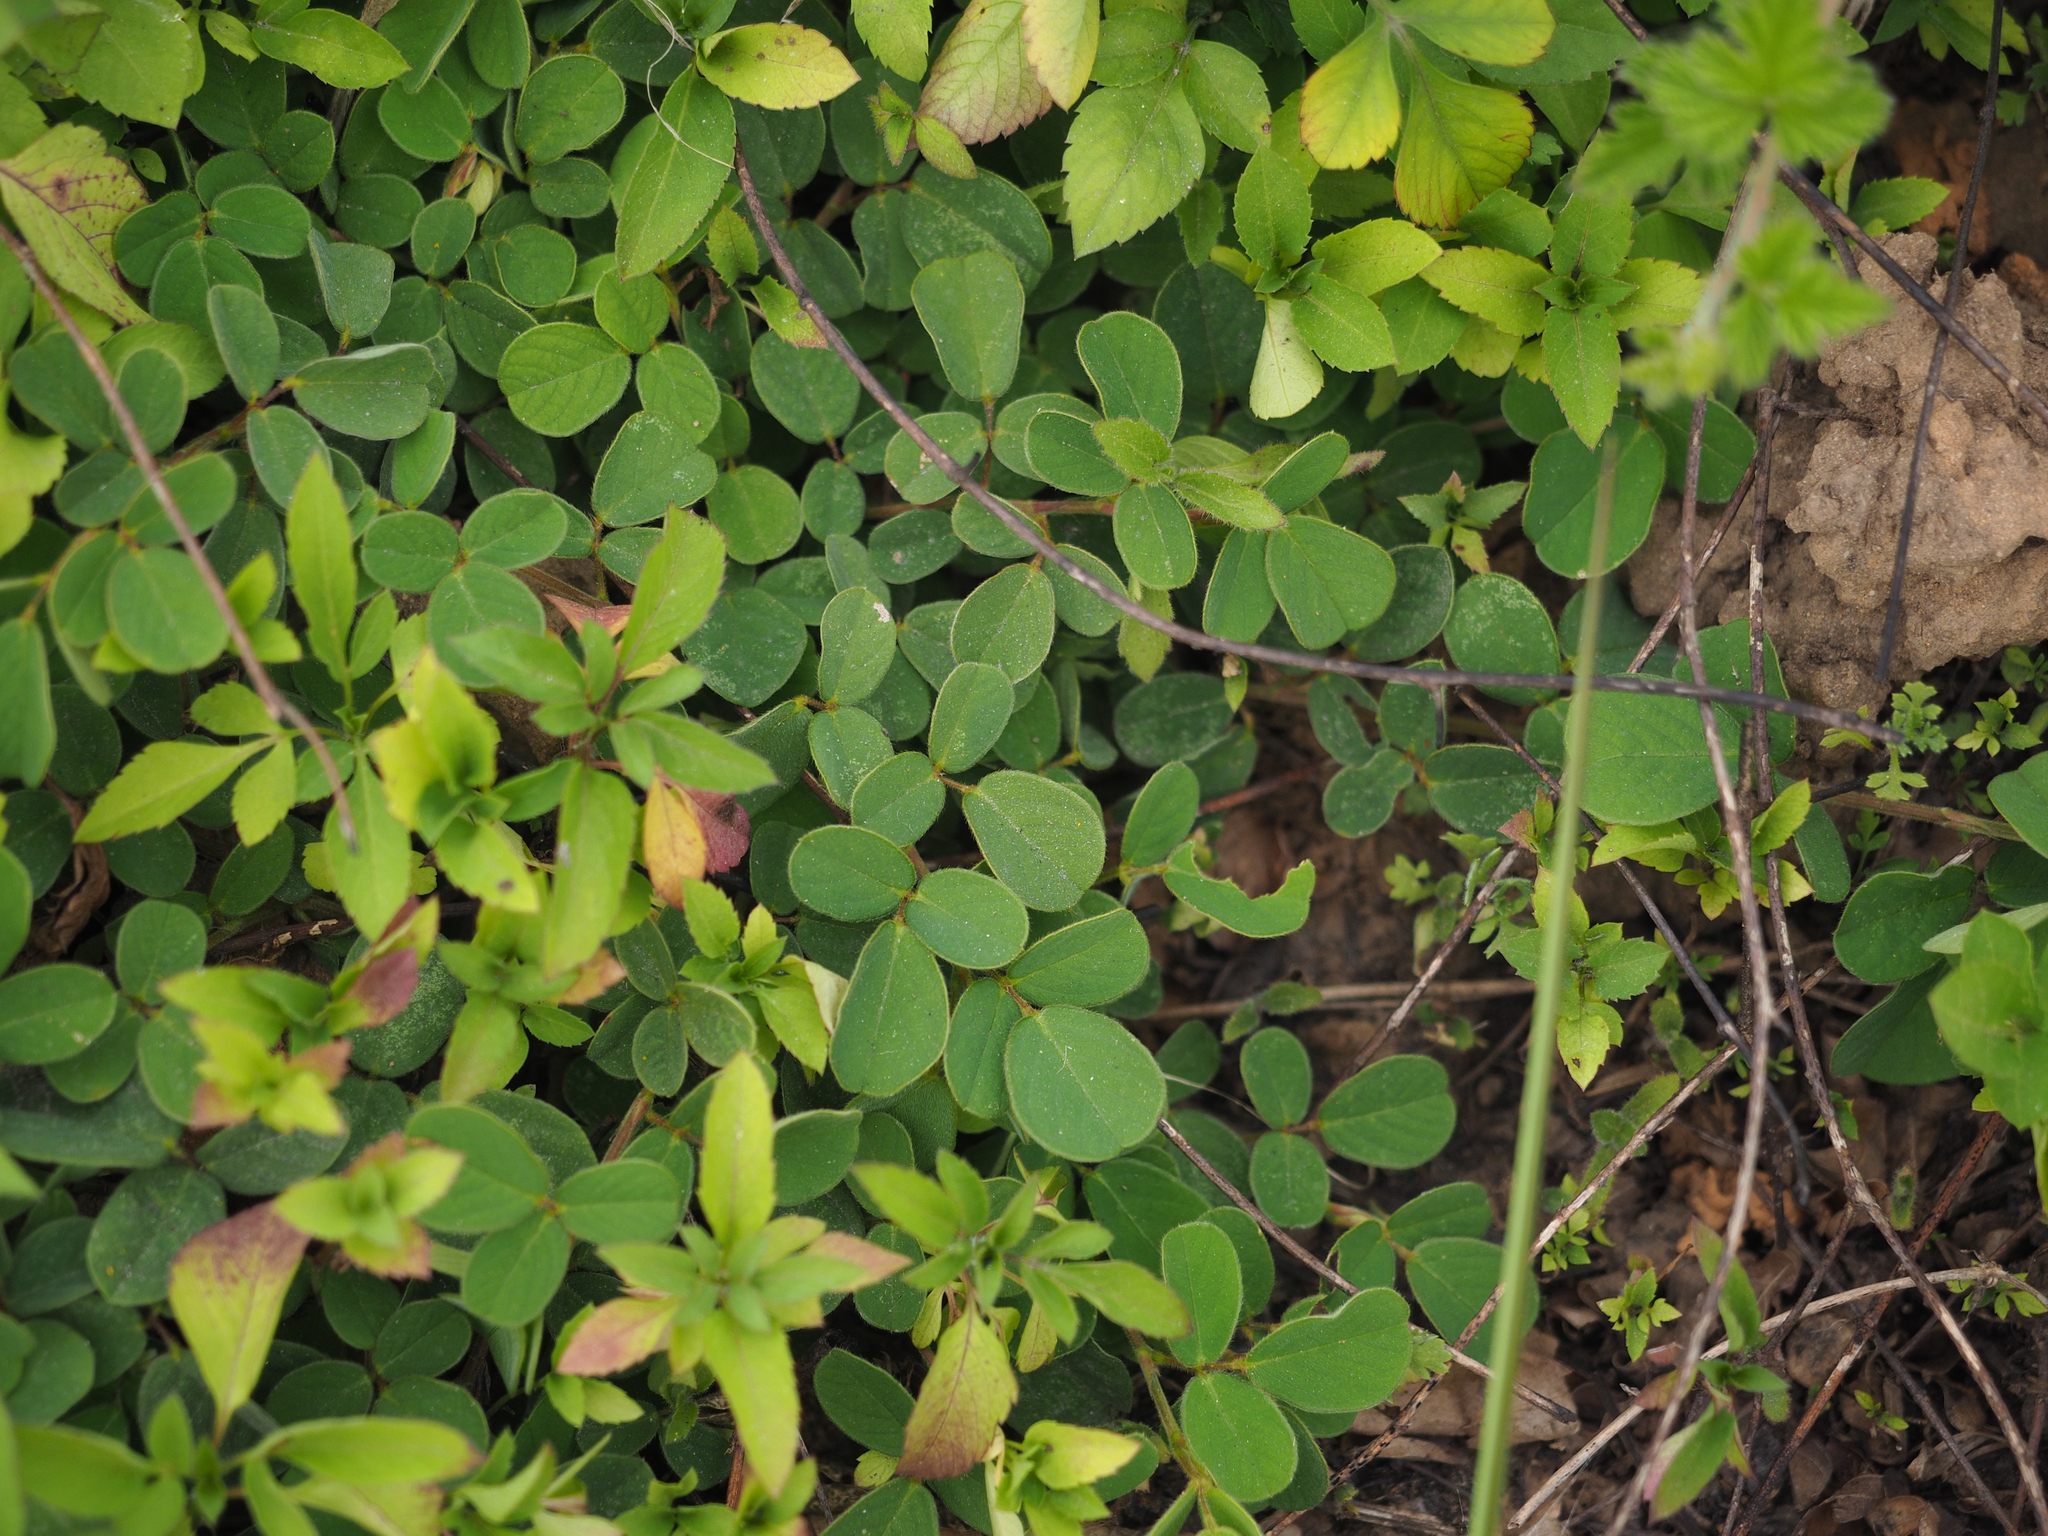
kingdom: Plantae
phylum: Tracheophyta
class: Magnoliopsida
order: Fabales
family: Fabaceae
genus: Pycnospora
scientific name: Pycnospora lutescens
